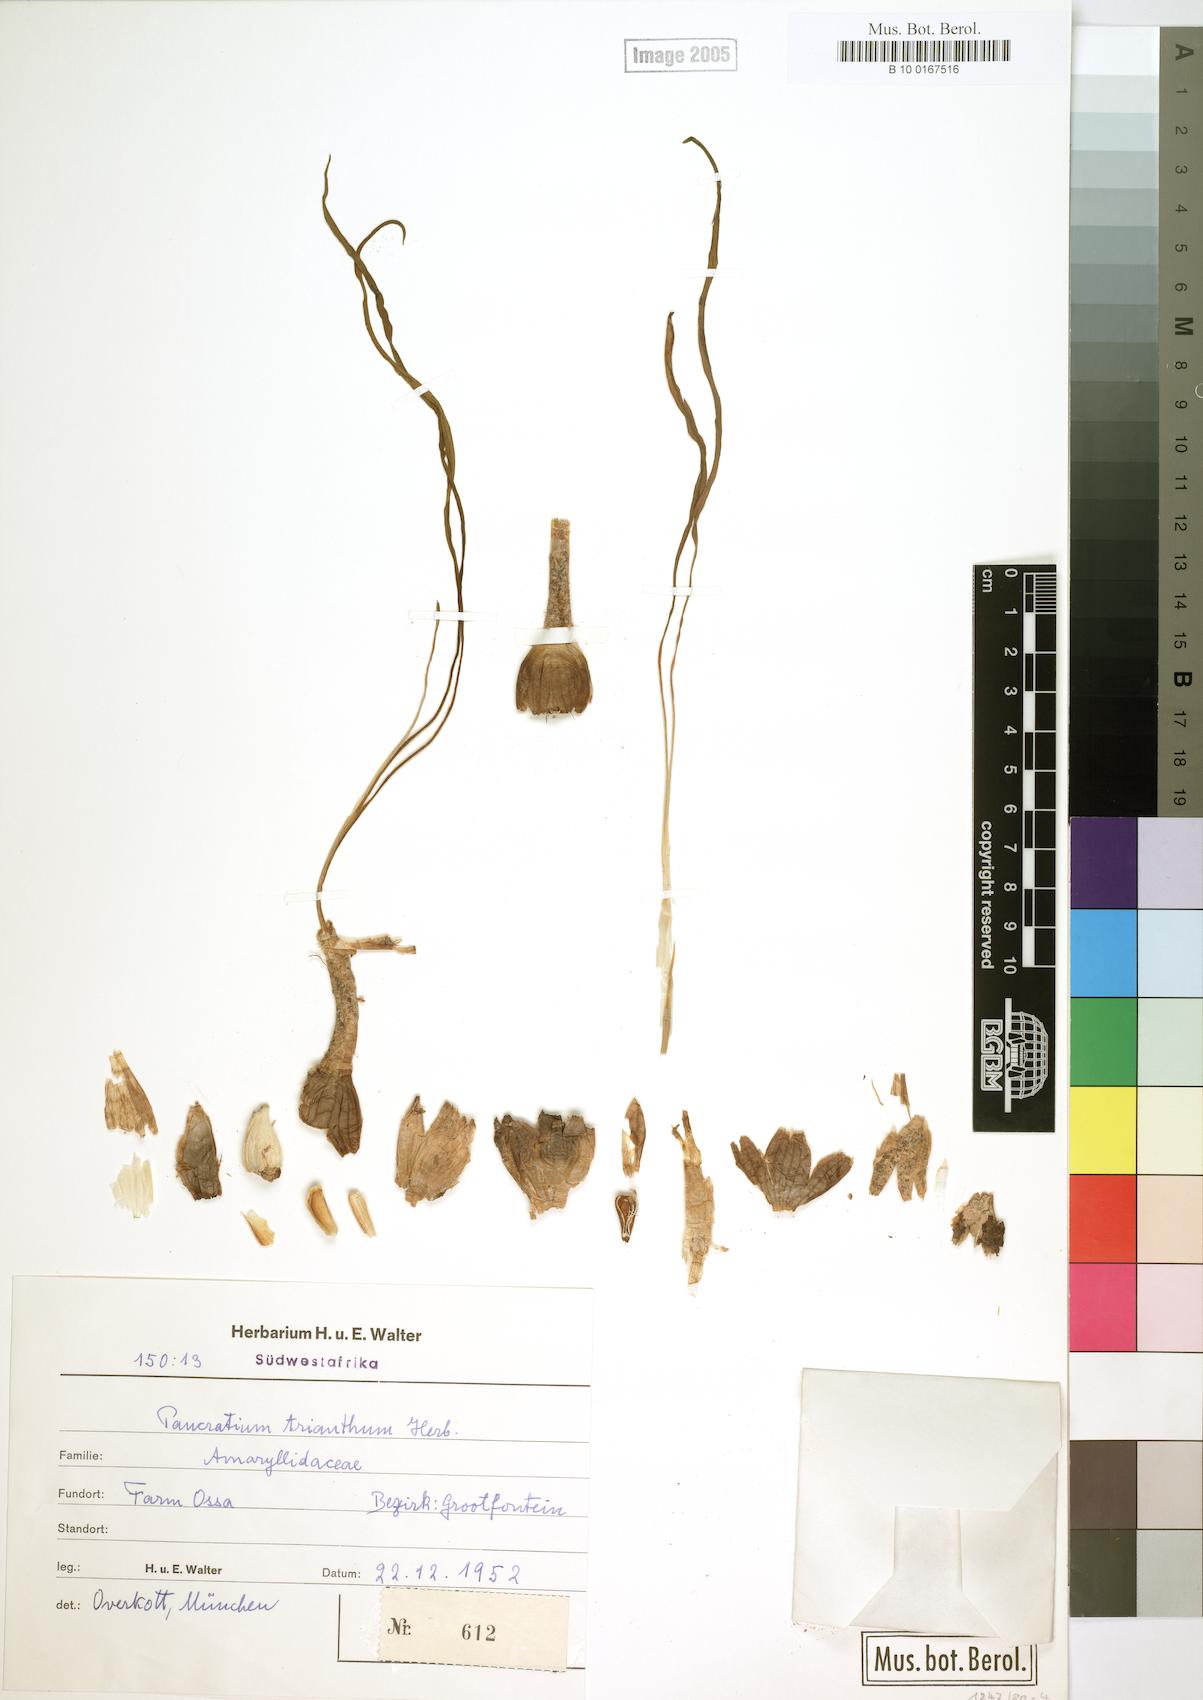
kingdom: Plantae
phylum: Tracheophyta
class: Liliopsida
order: Asparagales
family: Amaryllidaceae
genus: Pancratium
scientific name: Pancratium trianthum
